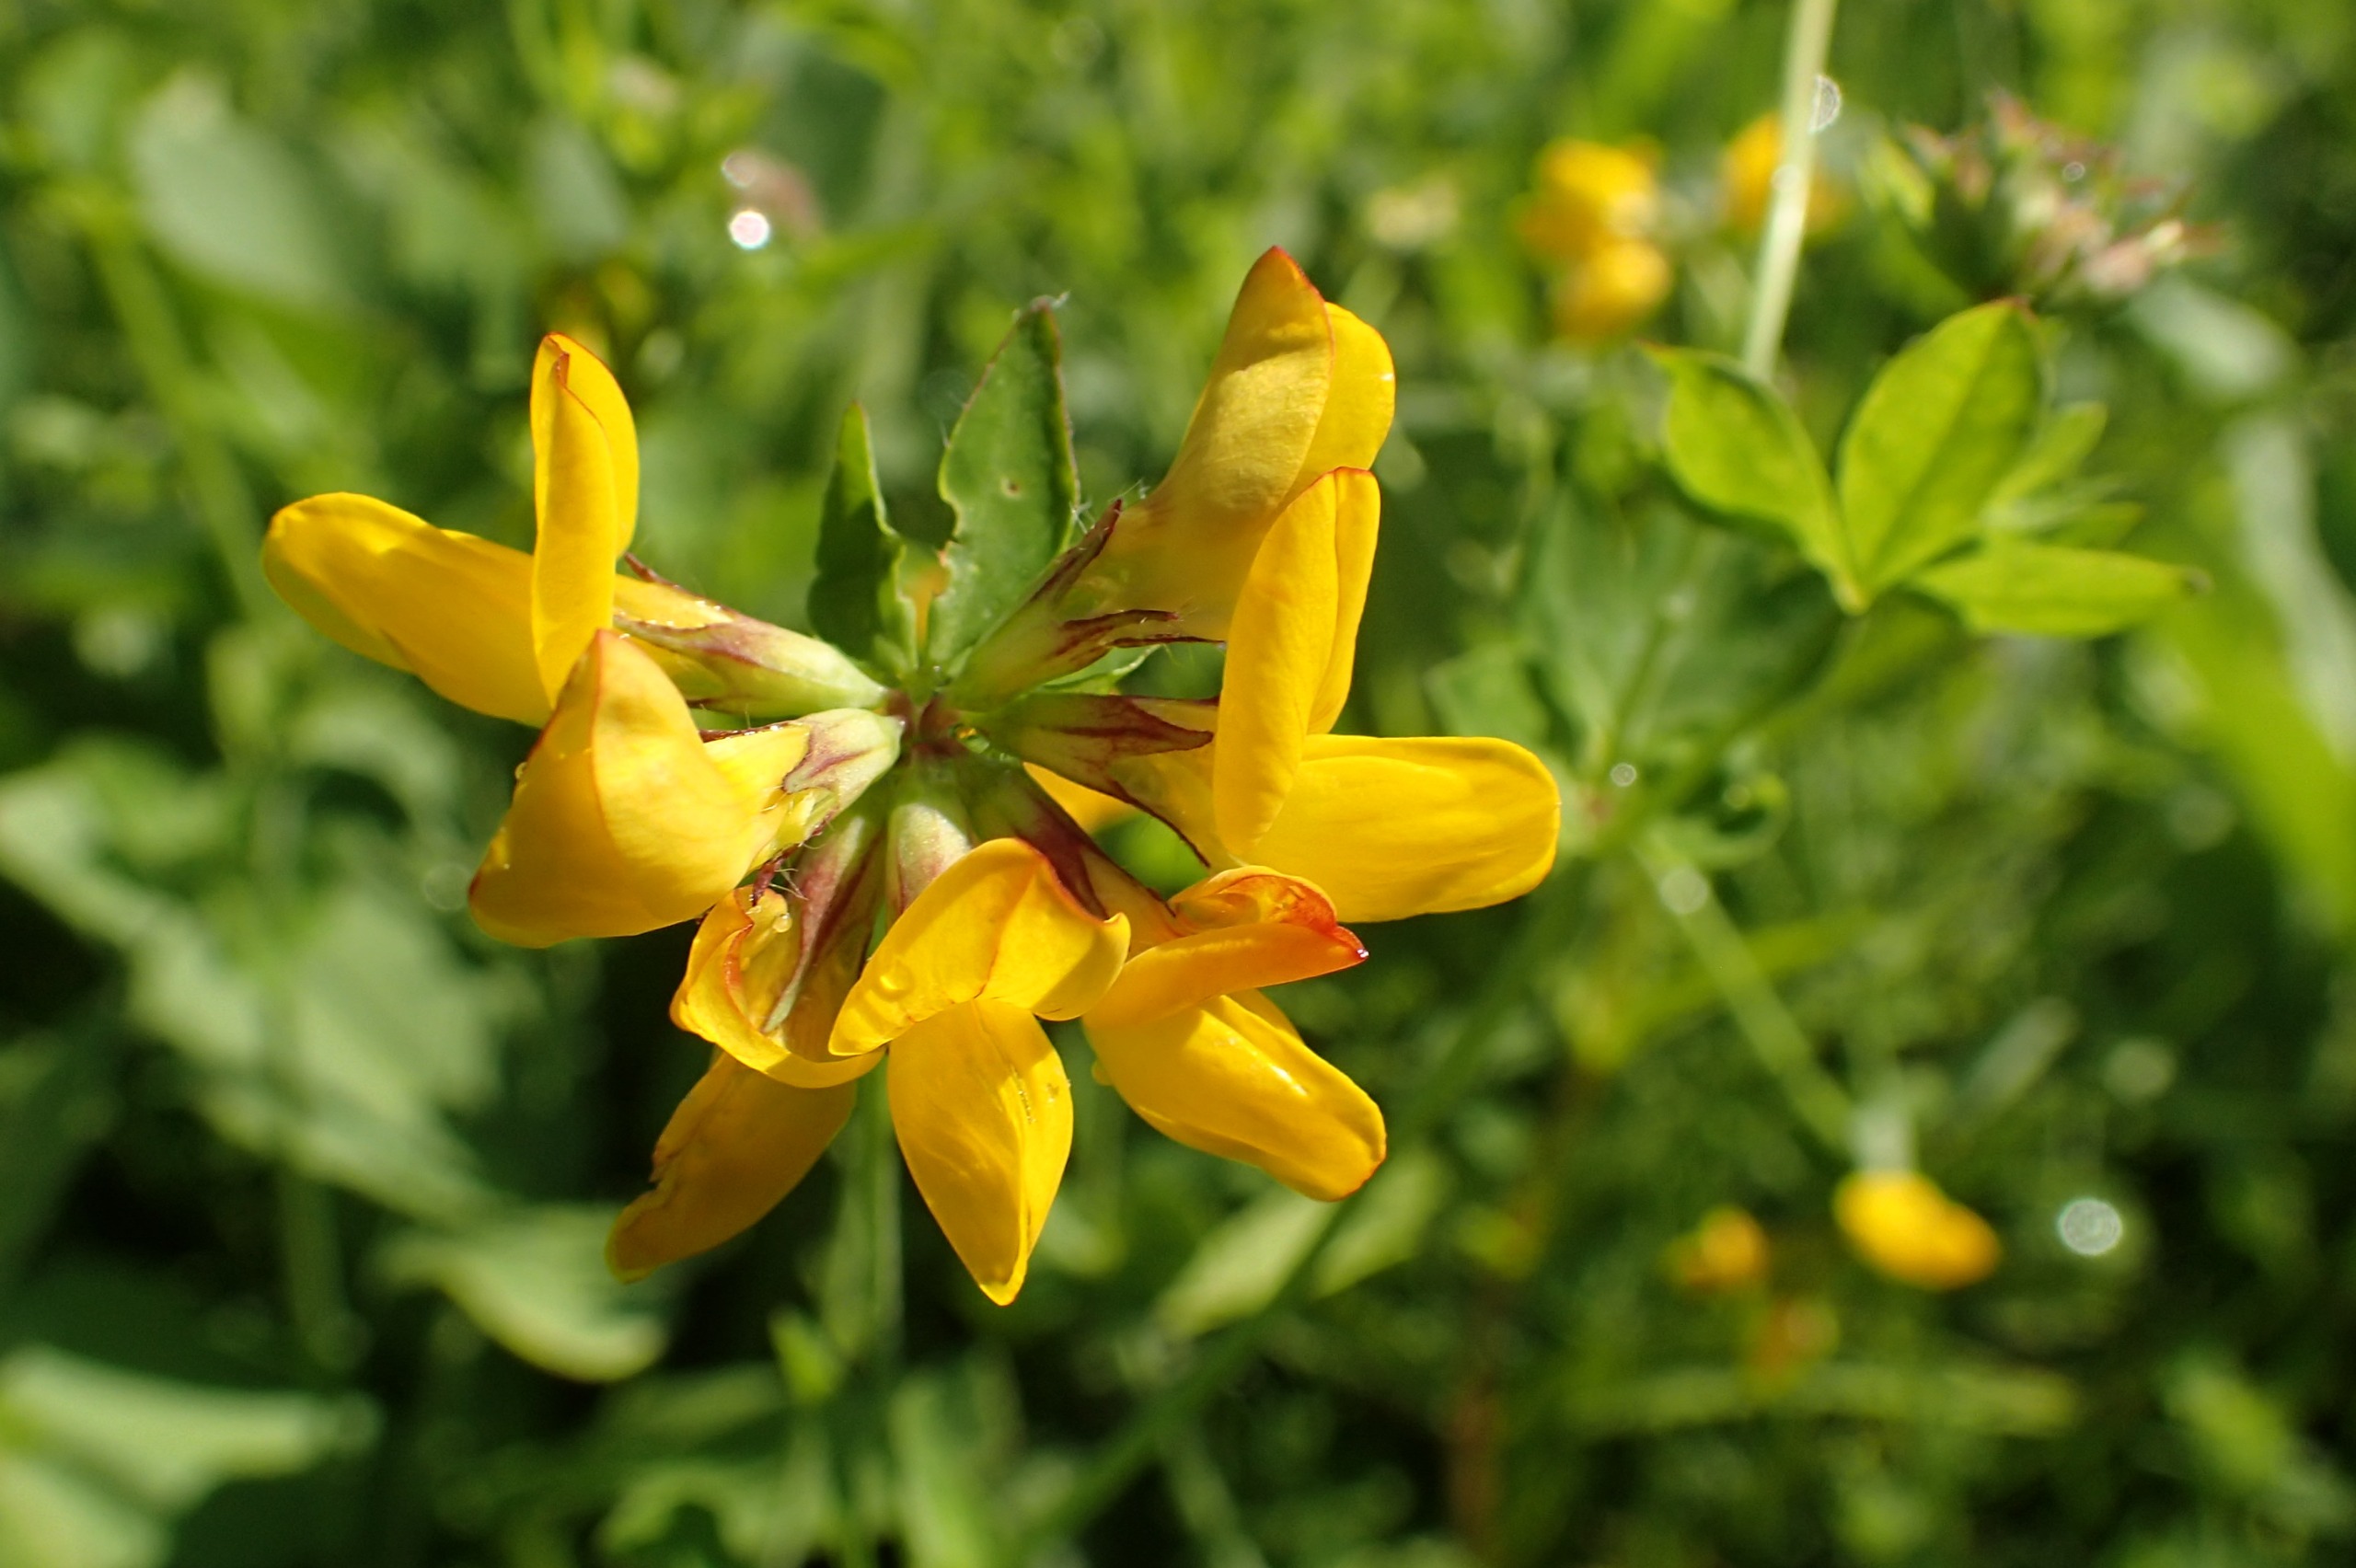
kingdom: Plantae
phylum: Tracheophyta
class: Magnoliopsida
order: Fabales
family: Fabaceae
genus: Lotus
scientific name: Lotus pedunculatus
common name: Sump-kællingetand
